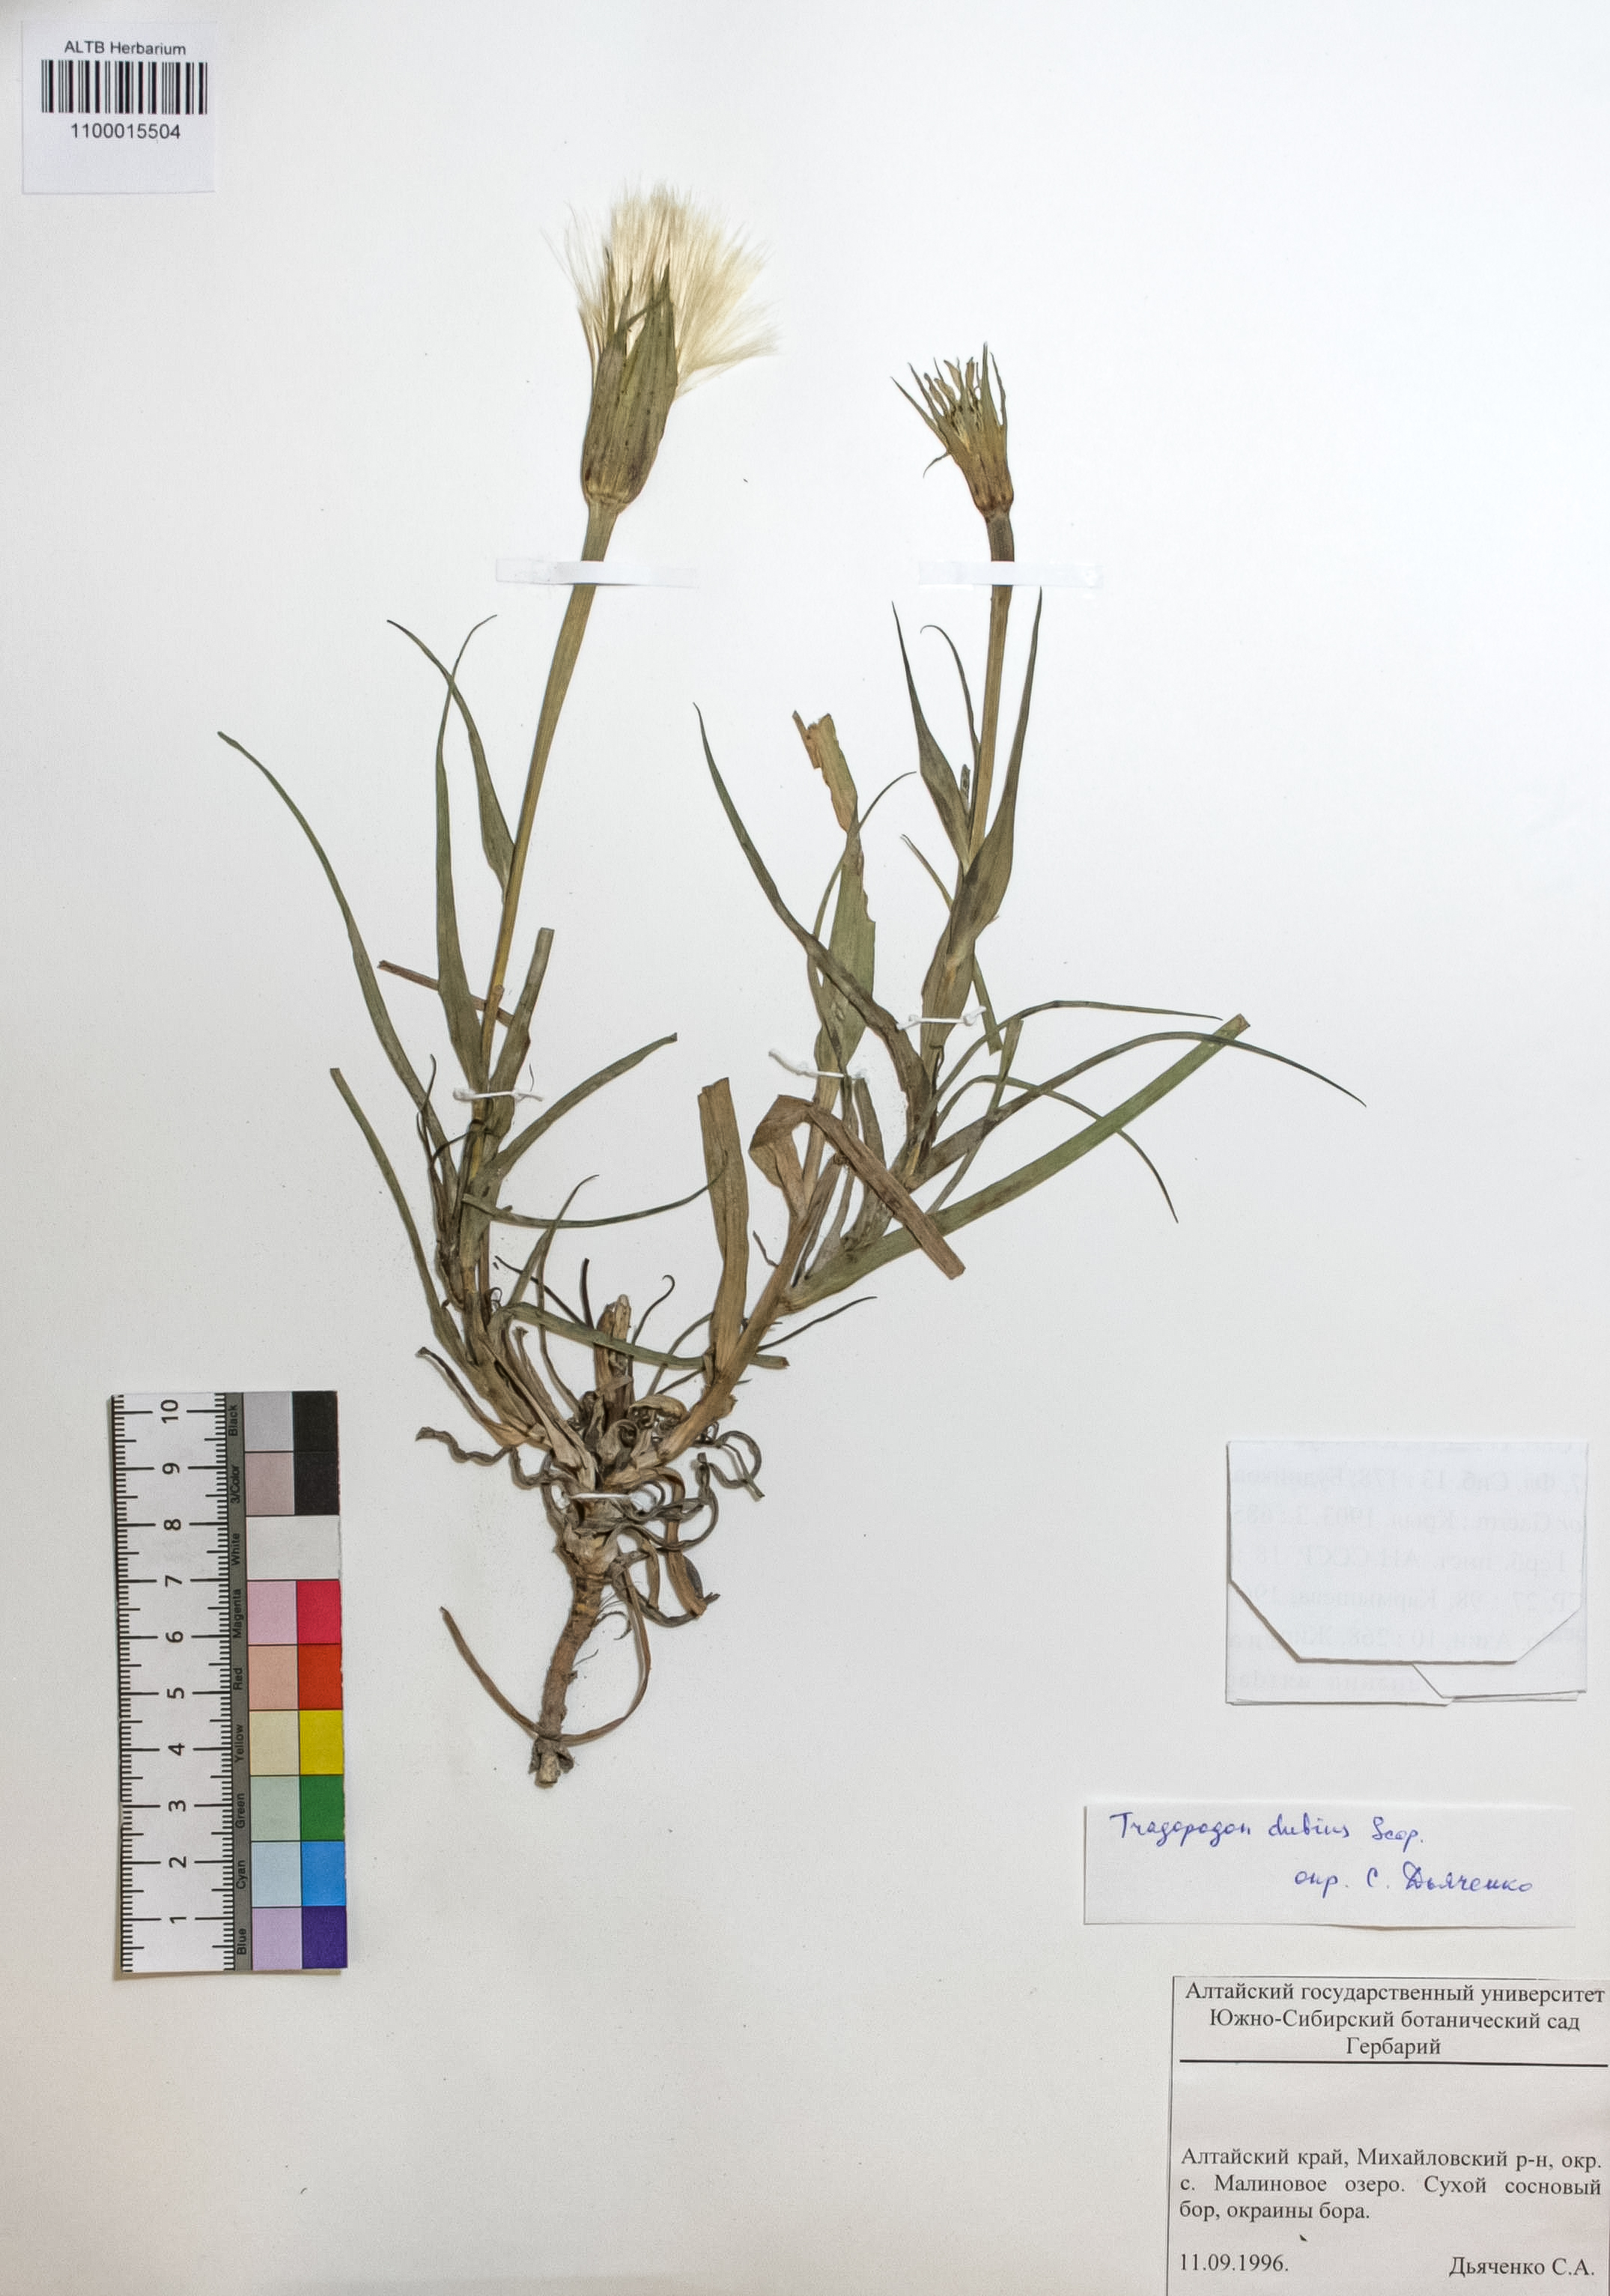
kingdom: Plantae
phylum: Tracheophyta
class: Magnoliopsida
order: Asterales
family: Asteraceae
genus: Tragopogon
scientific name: Tragopogon dubius
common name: Yellow salsify
